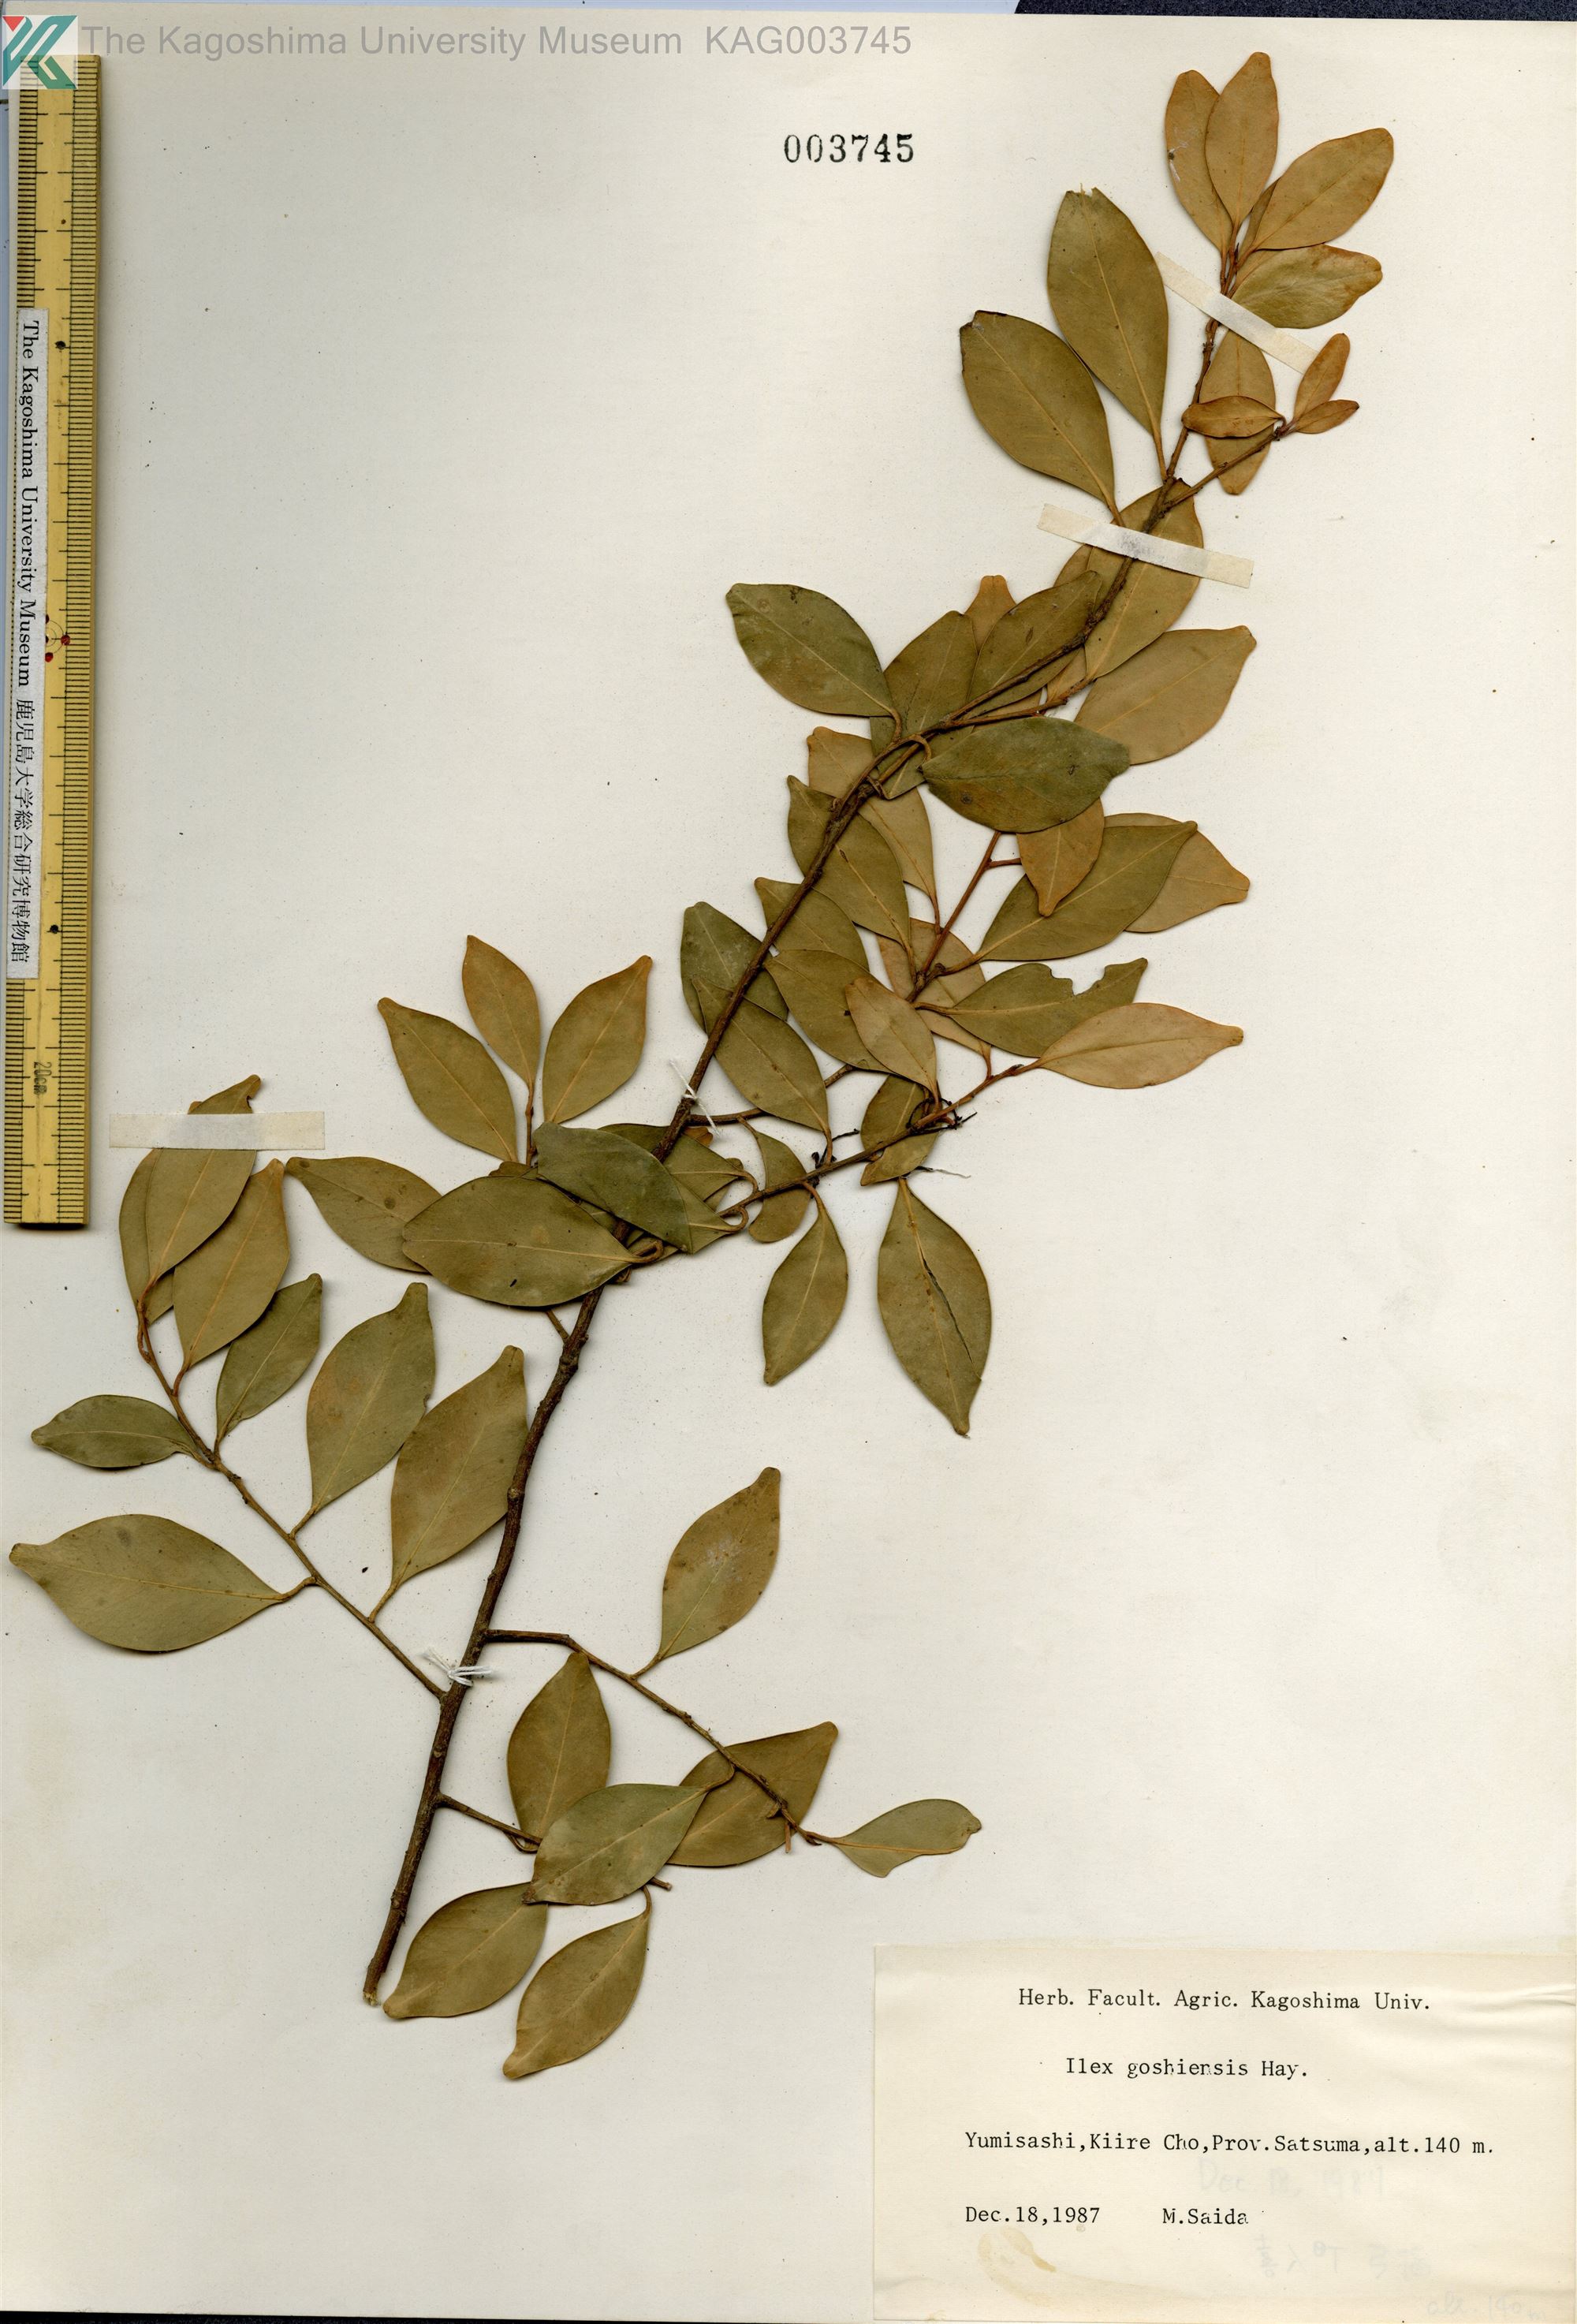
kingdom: Plantae
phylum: Tracheophyta
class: Magnoliopsida
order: Aquifoliales
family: Aquifoliaceae
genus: Ilex
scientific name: Ilex goshiensis
